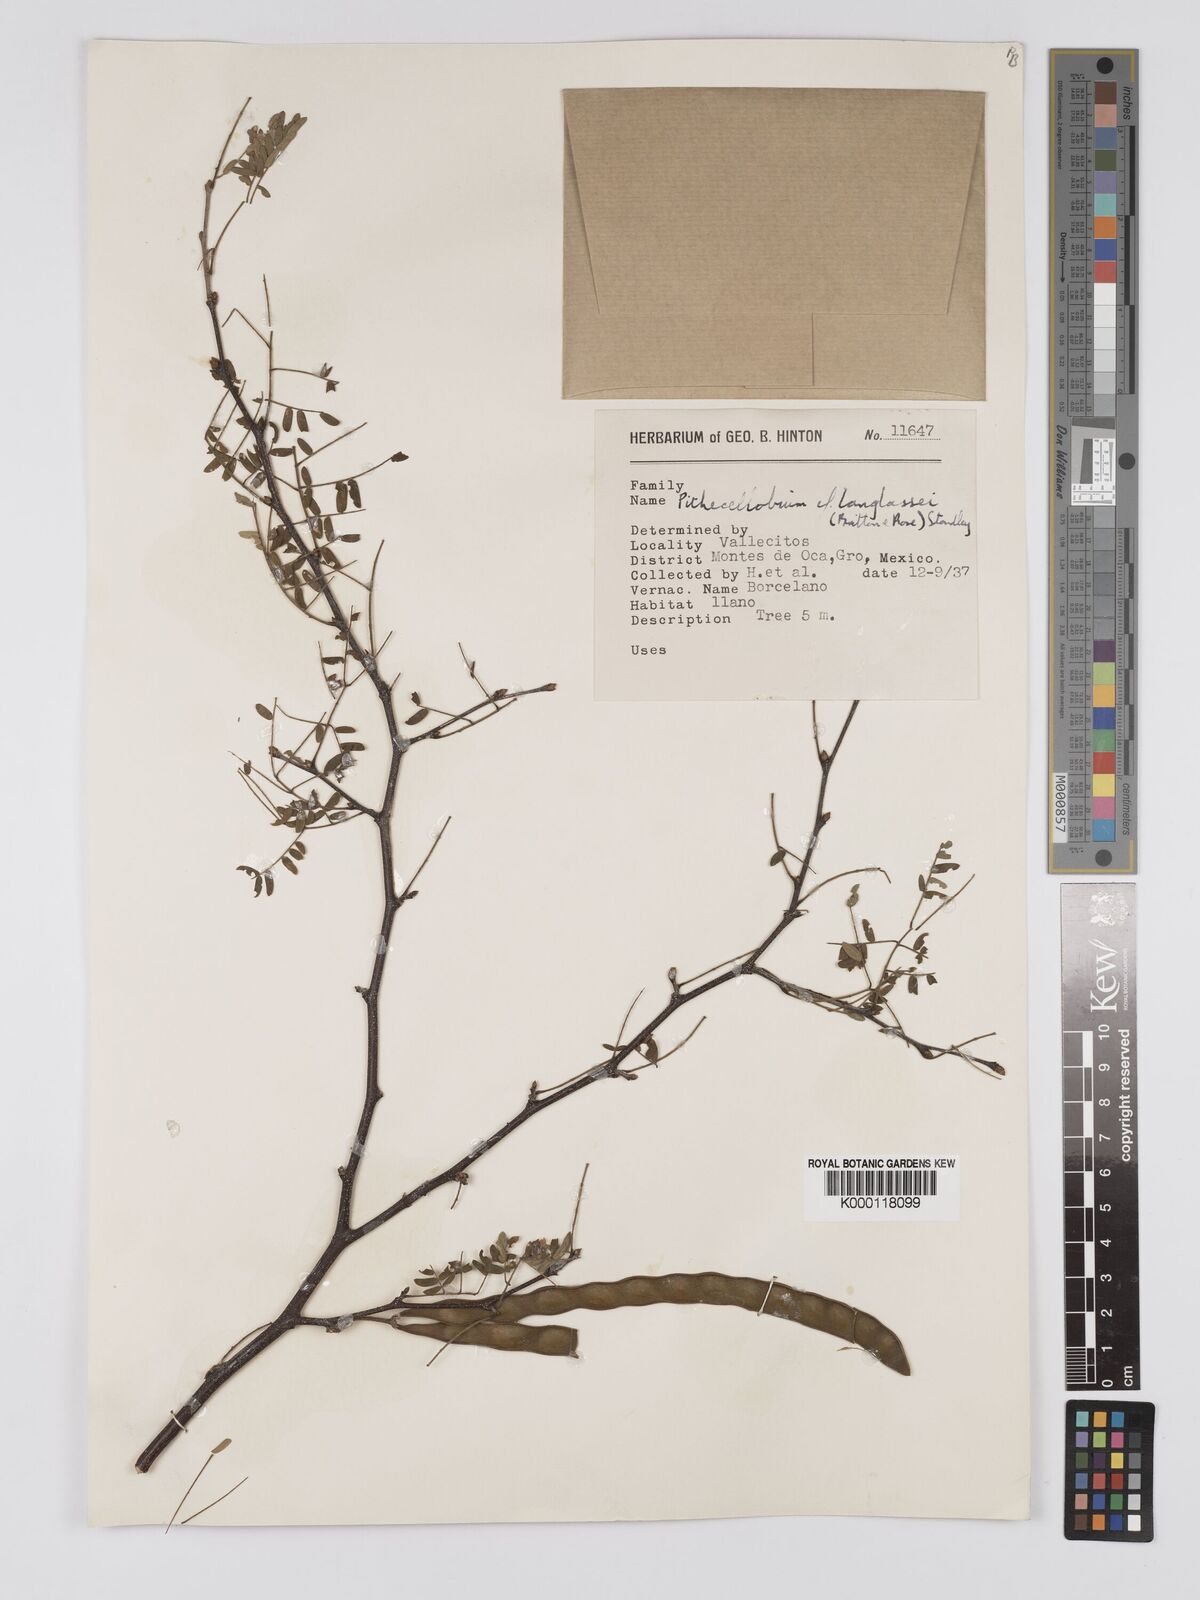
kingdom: Plantae
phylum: Tracheophyta
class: Magnoliopsida
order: Fabales
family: Fabaceae
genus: Chloroleucon
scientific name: Chloroleucon mangense
